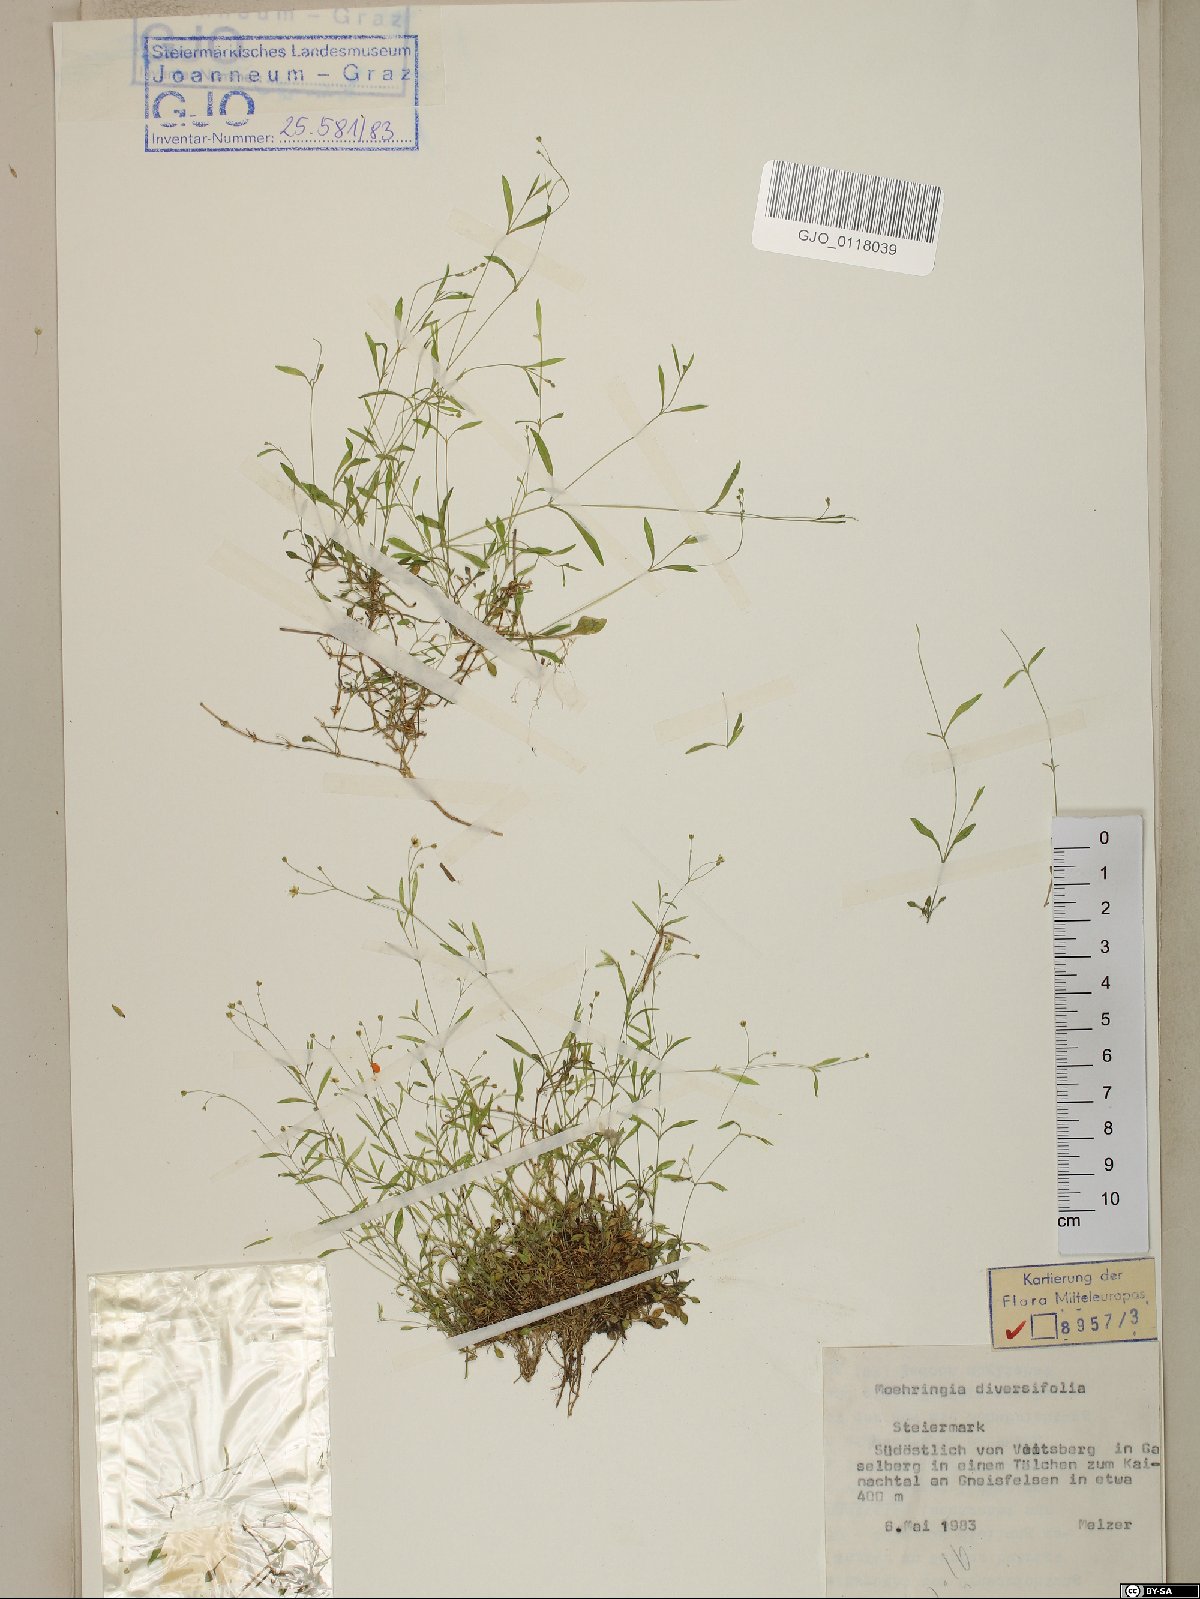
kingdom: Plantae
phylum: Tracheophyta
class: Magnoliopsida
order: Caryophyllales
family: Caryophyllaceae
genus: Moehringia
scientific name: Moehringia diversifolia
